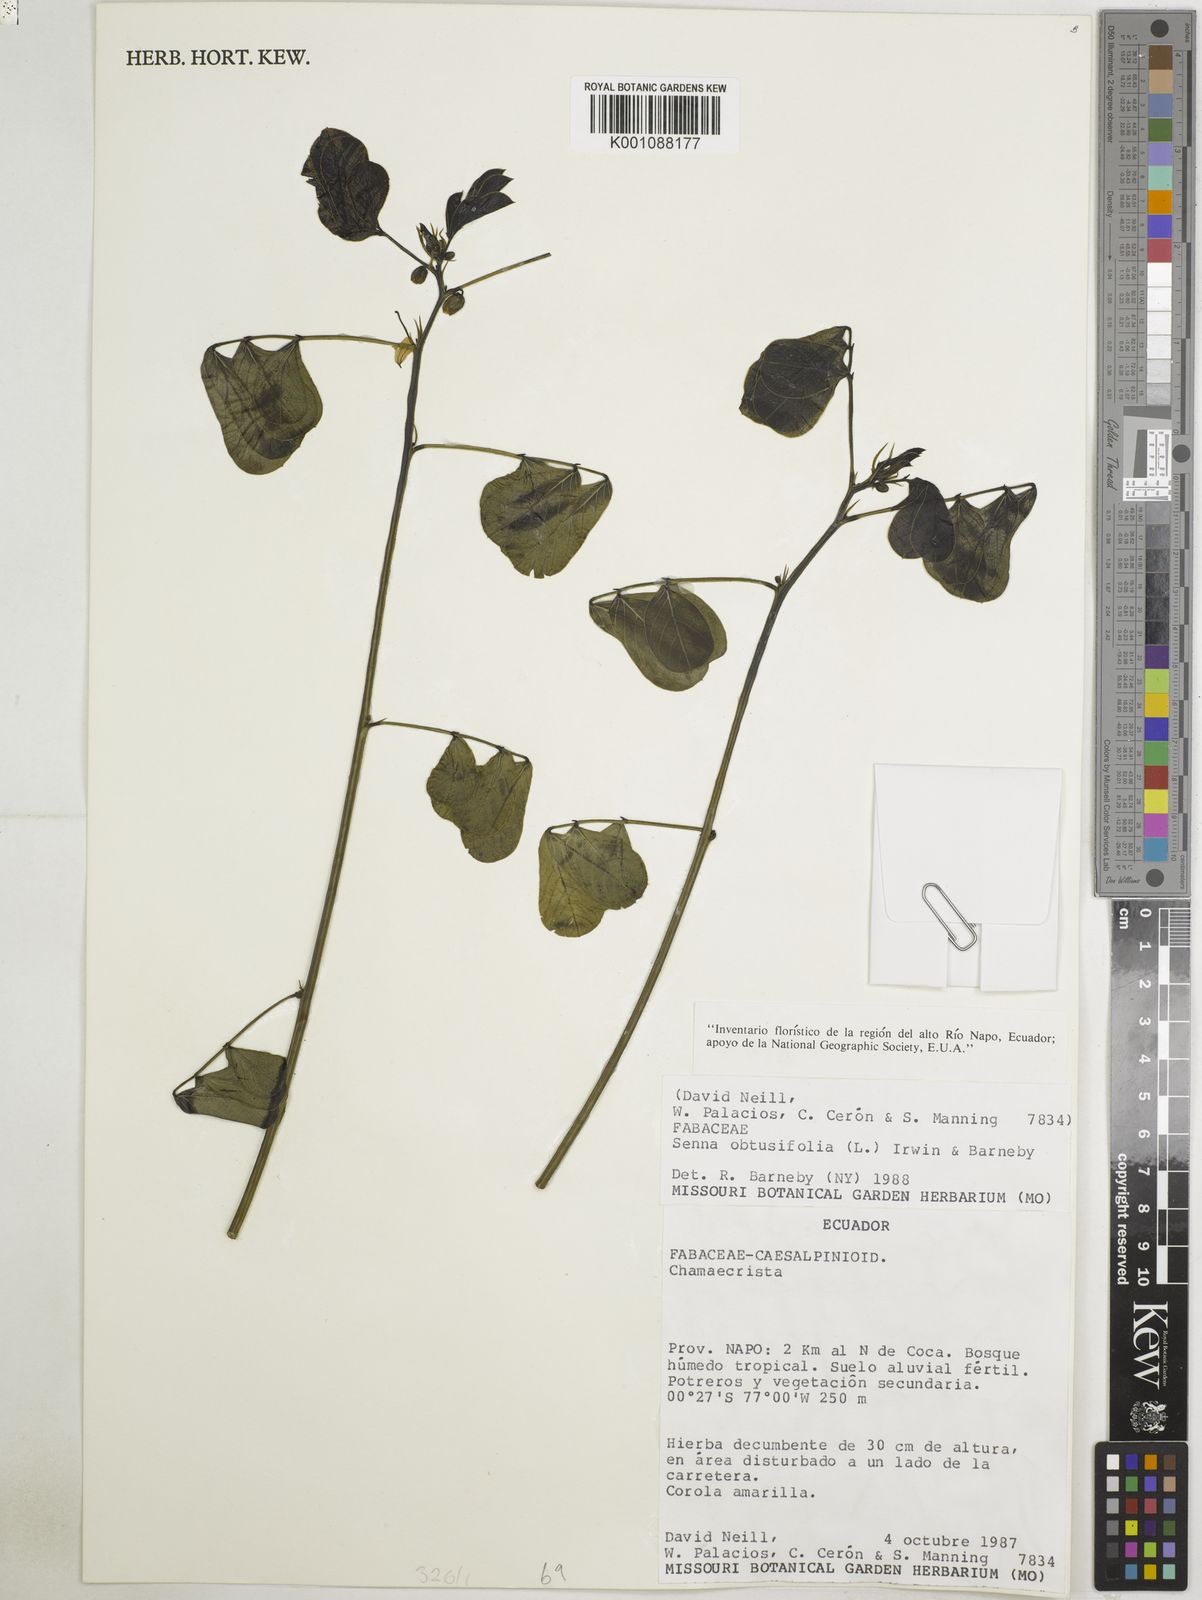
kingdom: Plantae
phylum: Tracheophyta
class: Magnoliopsida
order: Fabales
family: Fabaceae
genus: Senna
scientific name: Senna obtusifolia
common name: Java-bean
